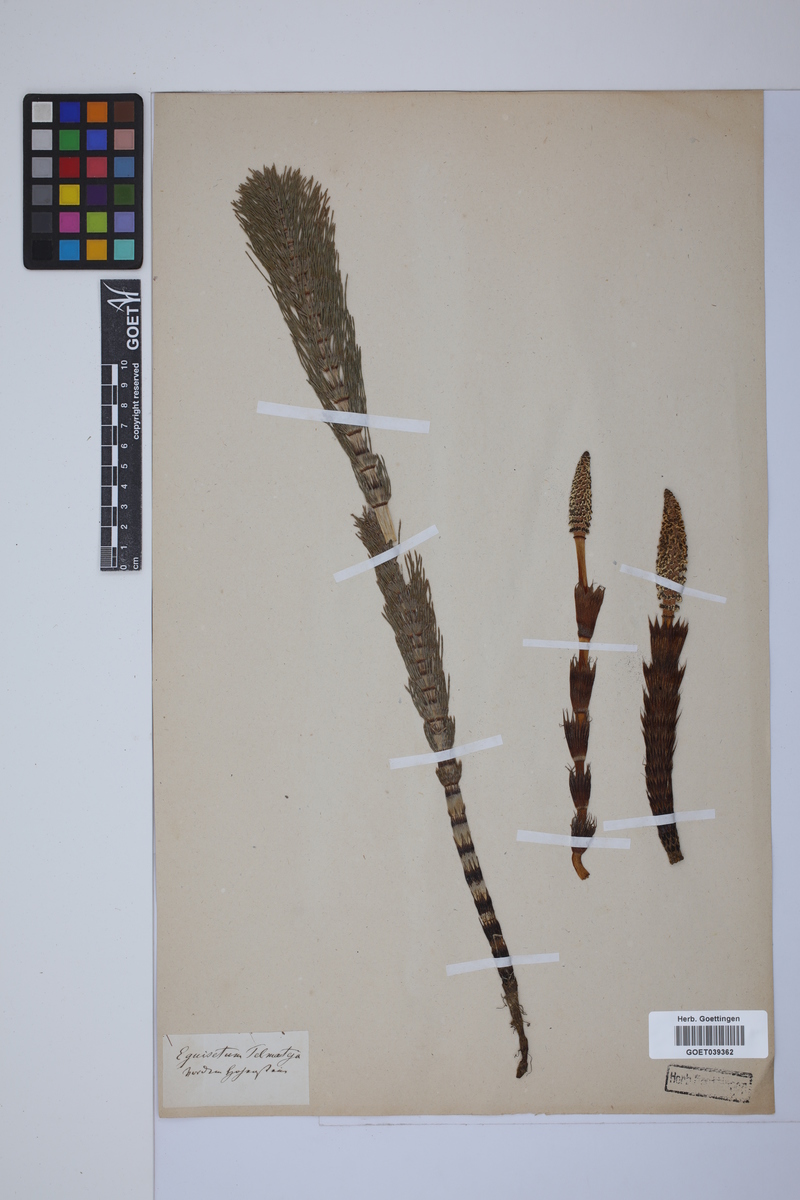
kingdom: Plantae
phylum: Tracheophyta
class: Polypodiopsida
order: Equisetales
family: Equisetaceae
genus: Equisetum
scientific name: Equisetum telmateia
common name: Great horsetail
